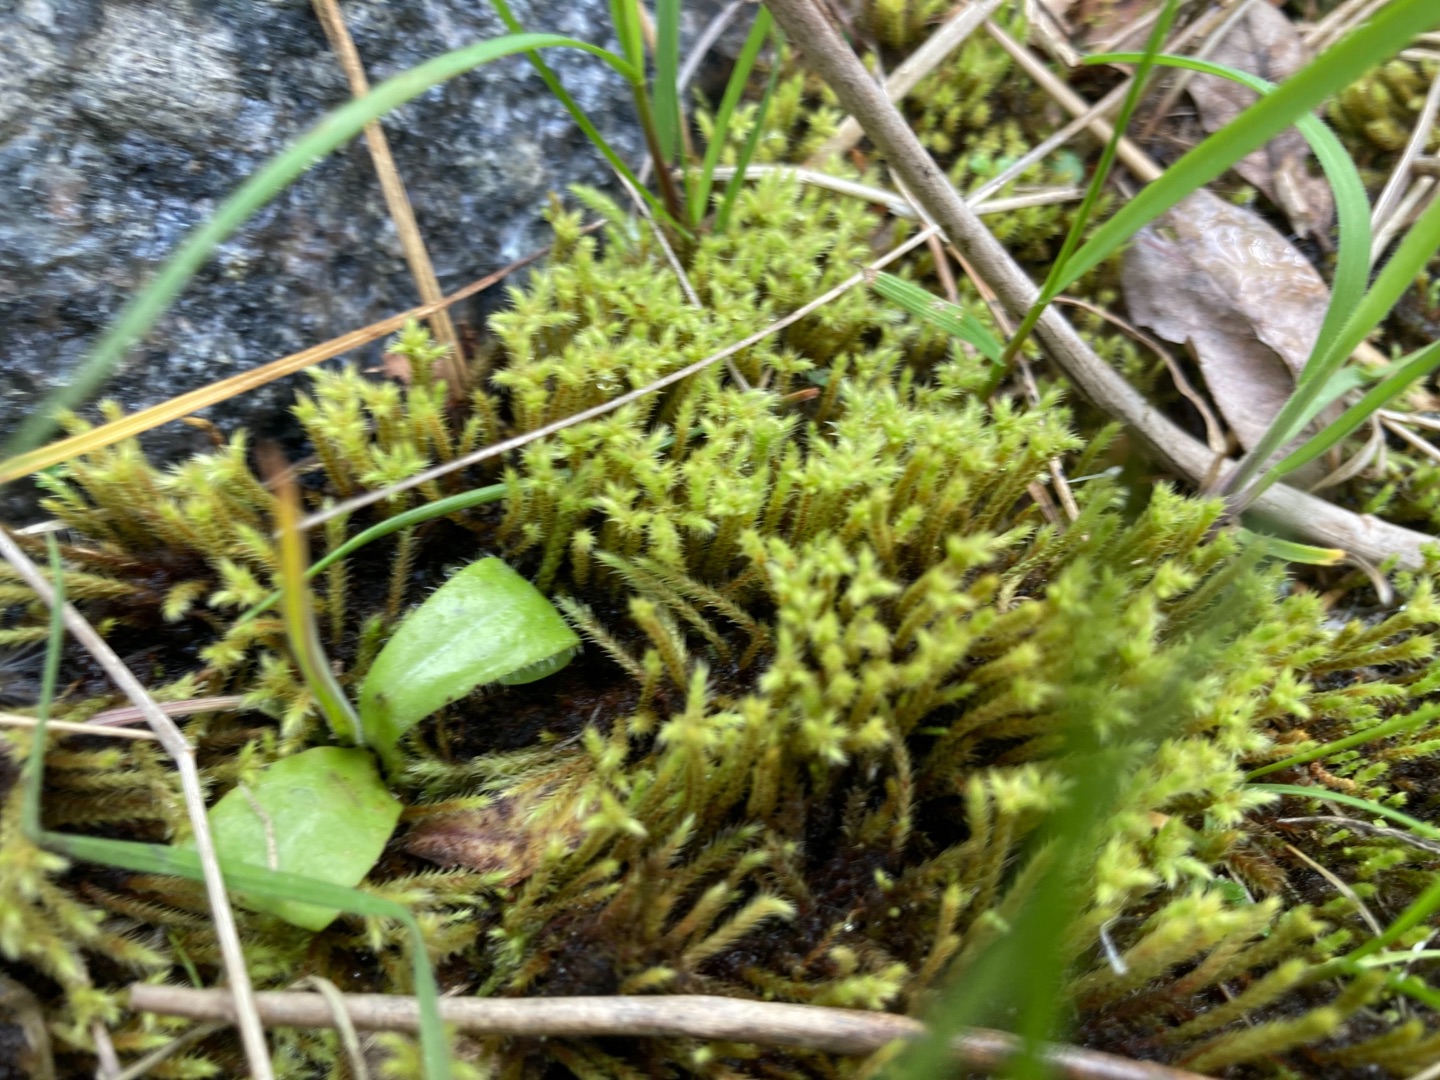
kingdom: Plantae
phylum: Bryophyta
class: Bryopsida
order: Bartramiales
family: Bartramiaceae
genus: Philonotis
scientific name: Philonotis
